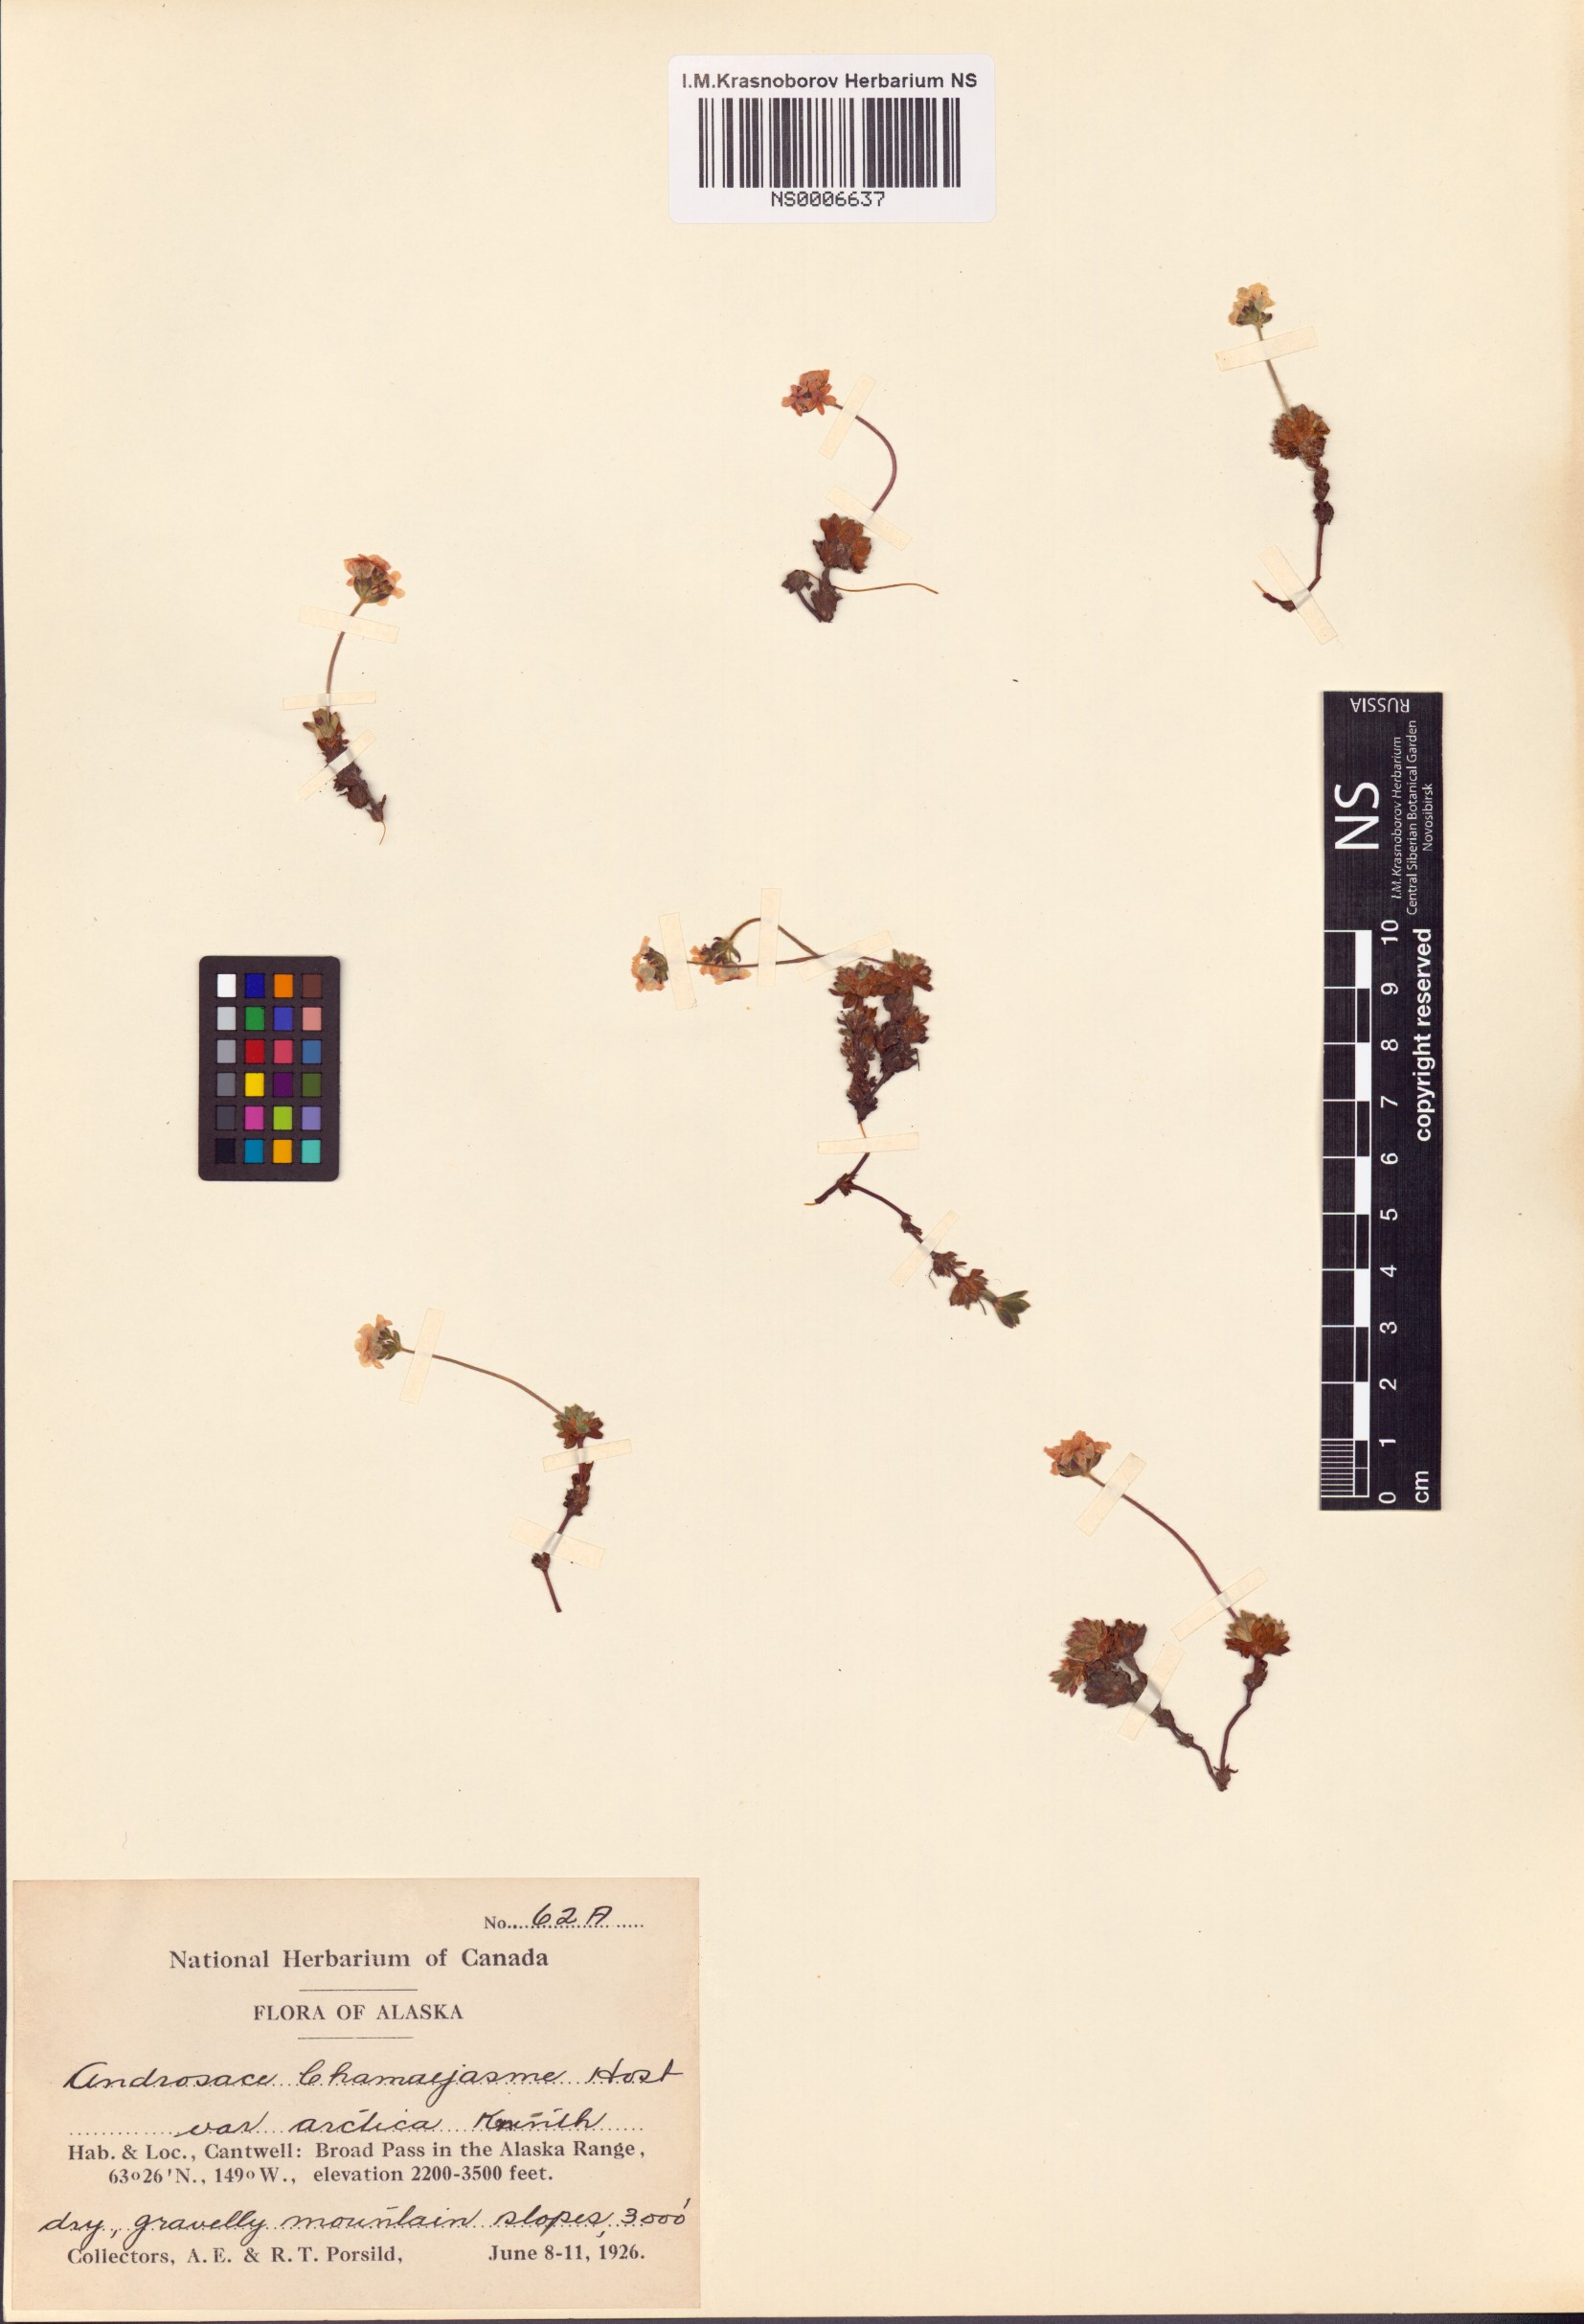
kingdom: Plantae
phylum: Tracheophyta
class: Magnoliopsida
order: Ericales
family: Primulaceae
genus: Androsace
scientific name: Androsace chamaejasme
